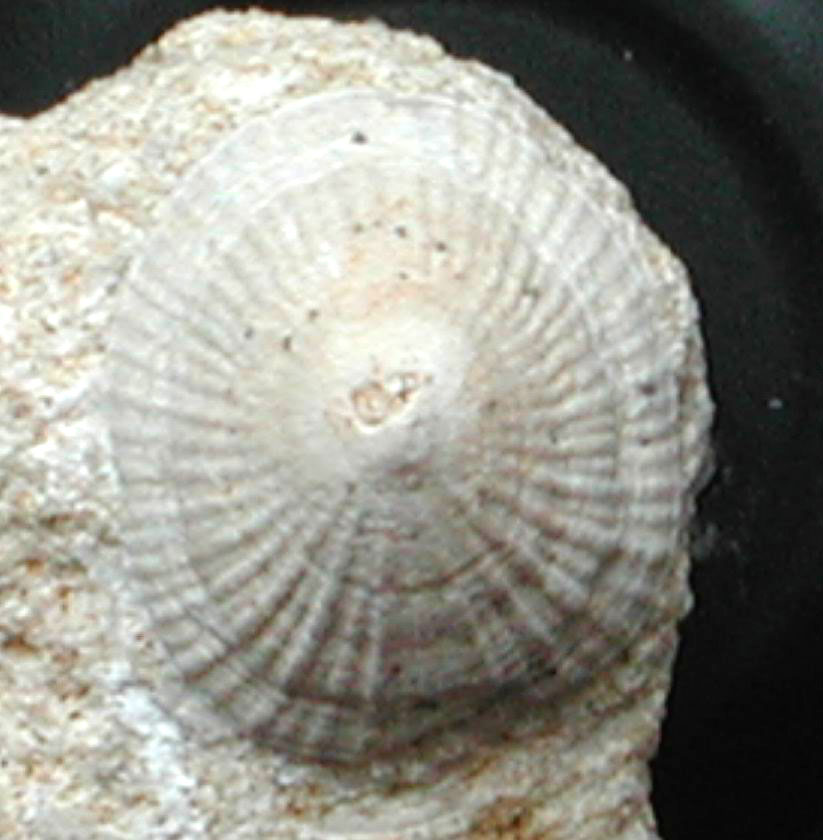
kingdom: Animalia
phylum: Mollusca
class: Gastropoda
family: Acmaeadae
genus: Scurriopsis
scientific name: Scurriopsis Patella schmidtii
